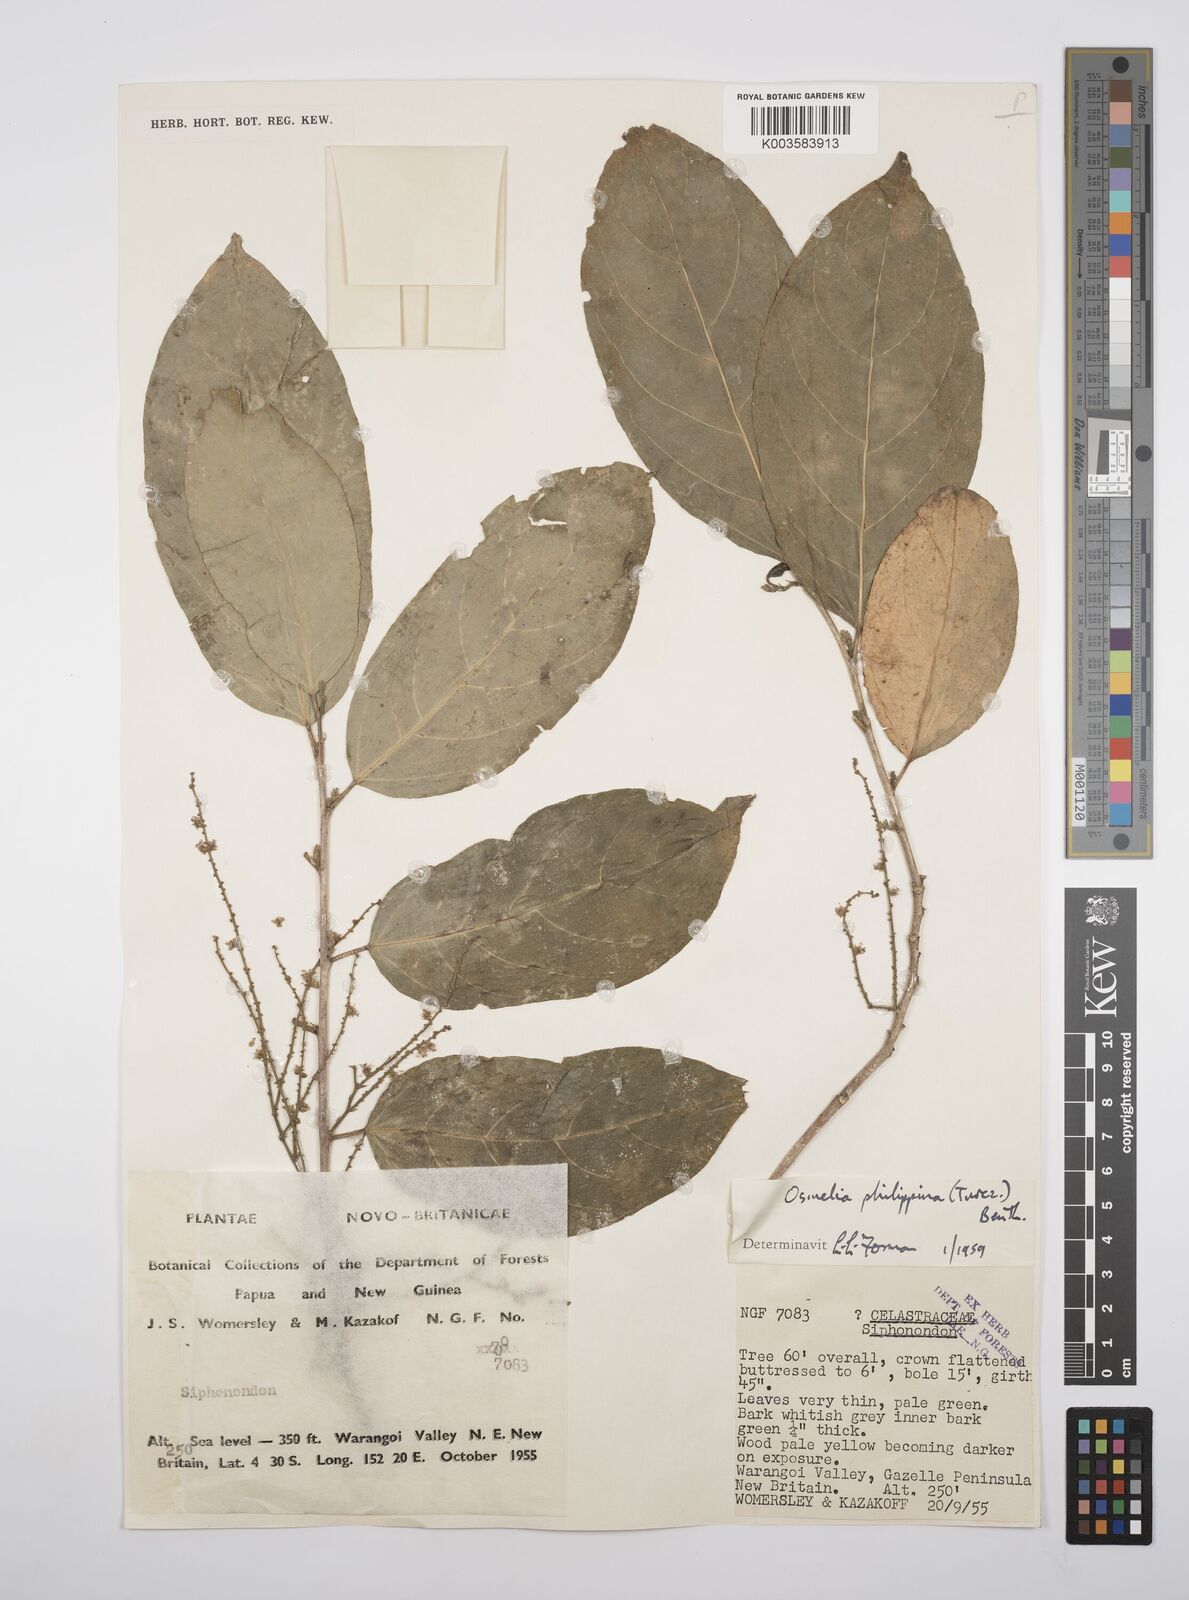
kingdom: Plantae
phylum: Tracheophyta
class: Magnoliopsida
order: Malpighiales
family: Salicaceae
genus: Osmelia
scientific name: Osmelia philippina
